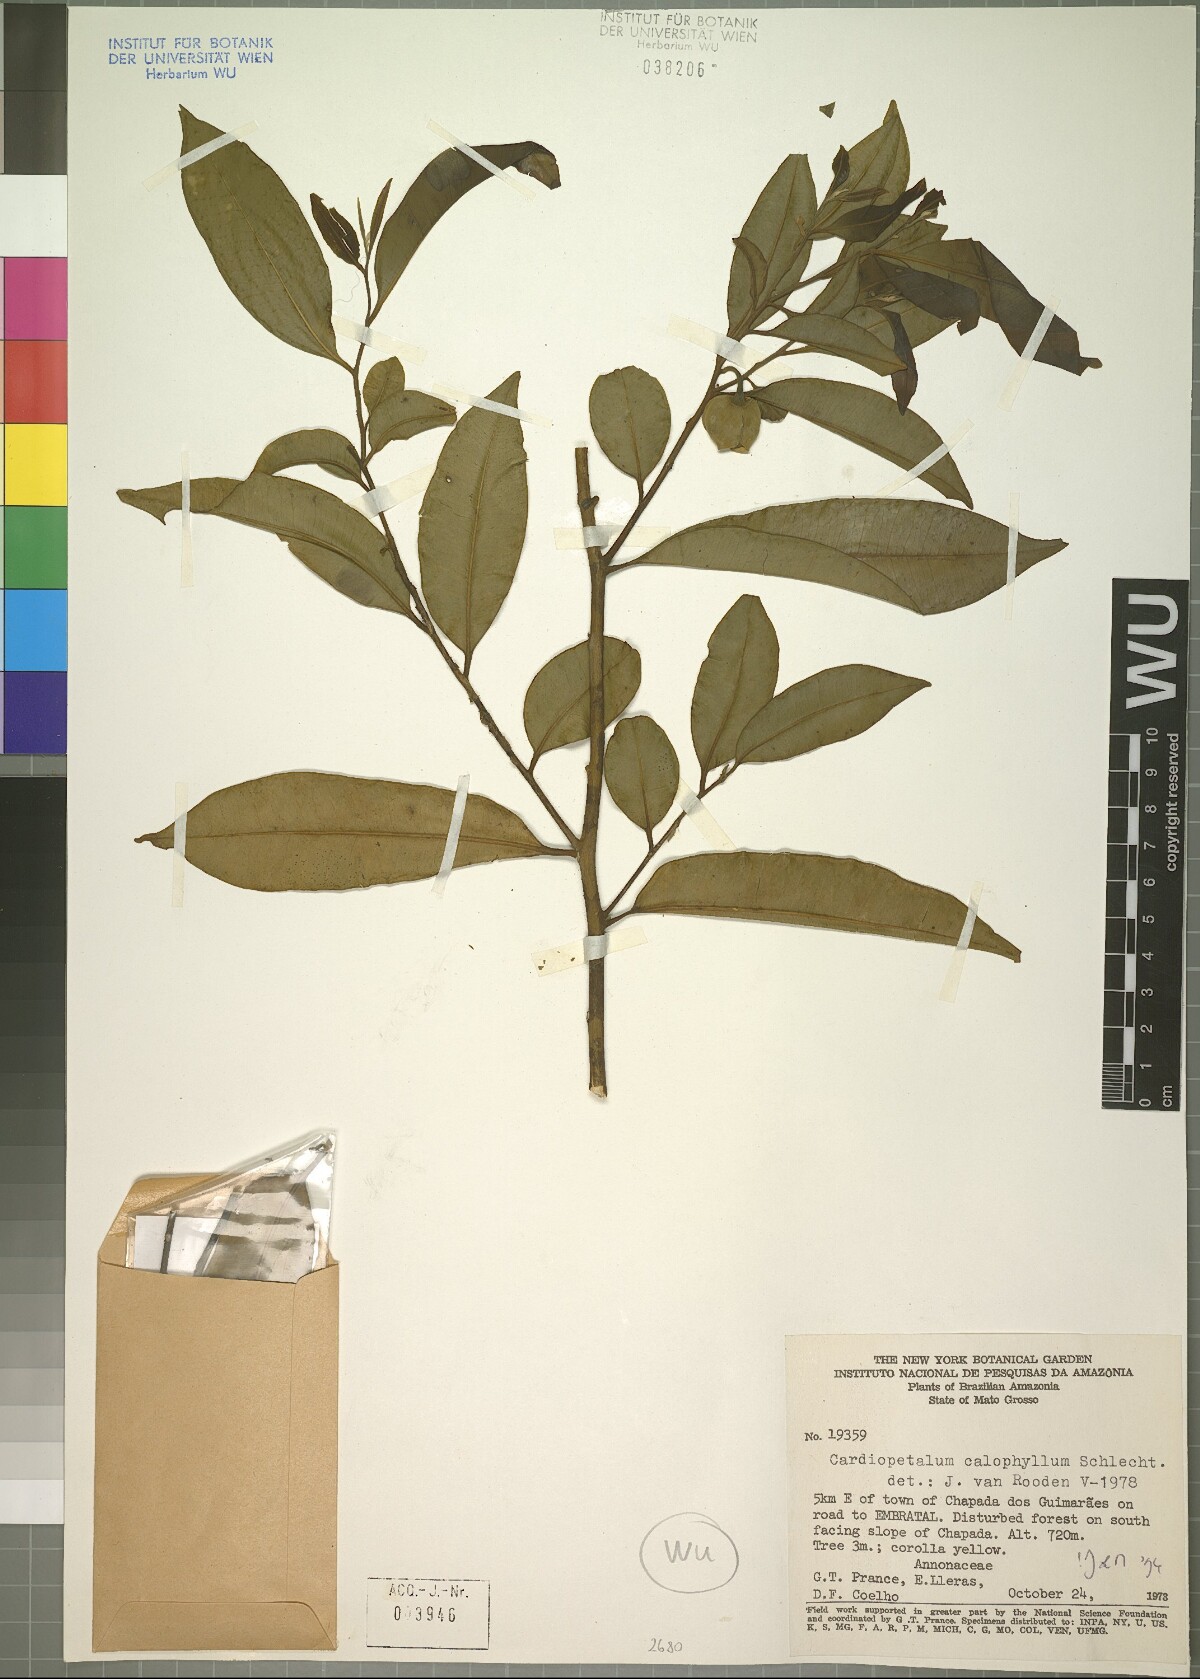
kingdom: Plantae
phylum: Tracheophyta
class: Magnoliopsida
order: Magnoliales
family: Annonaceae
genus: Cardiopetalum
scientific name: Cardiopetalum calophyllum
